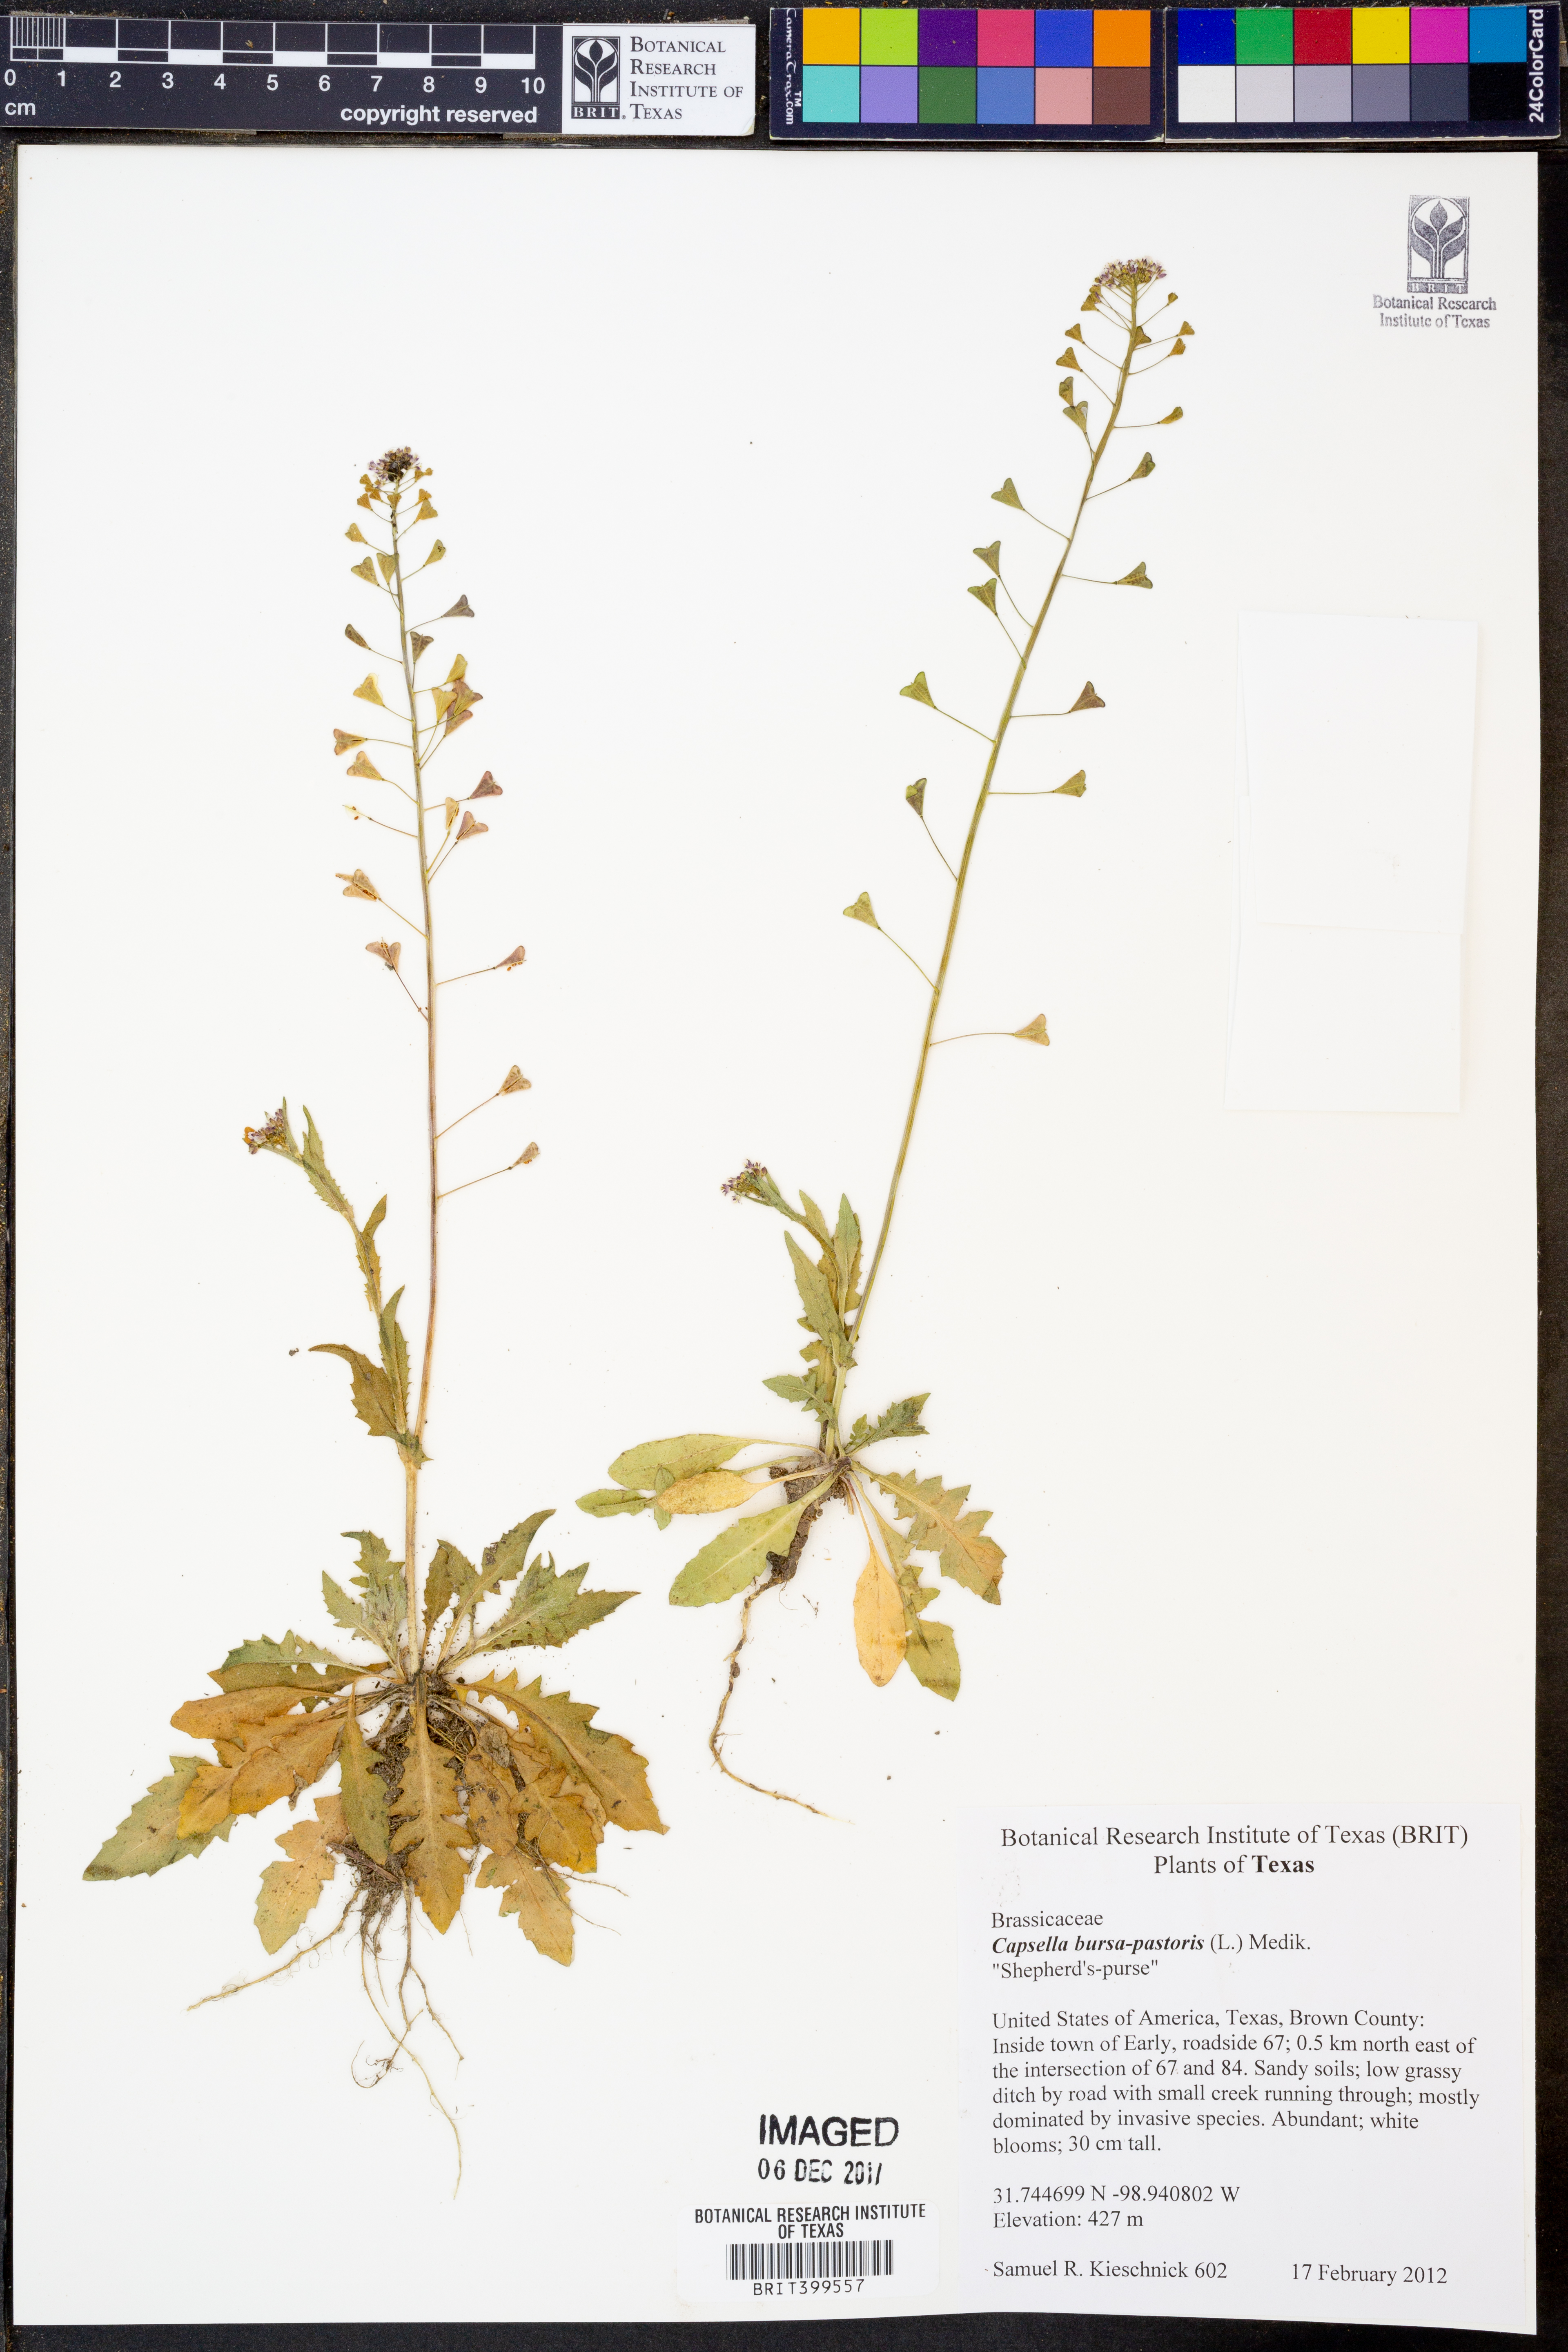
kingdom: Plantae
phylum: Tracheophyta
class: Magnoliopsida
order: Brassicales
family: Brassicaceae
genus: Capsella
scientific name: Capsella bursa-pastoris
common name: Shepherd's purse
